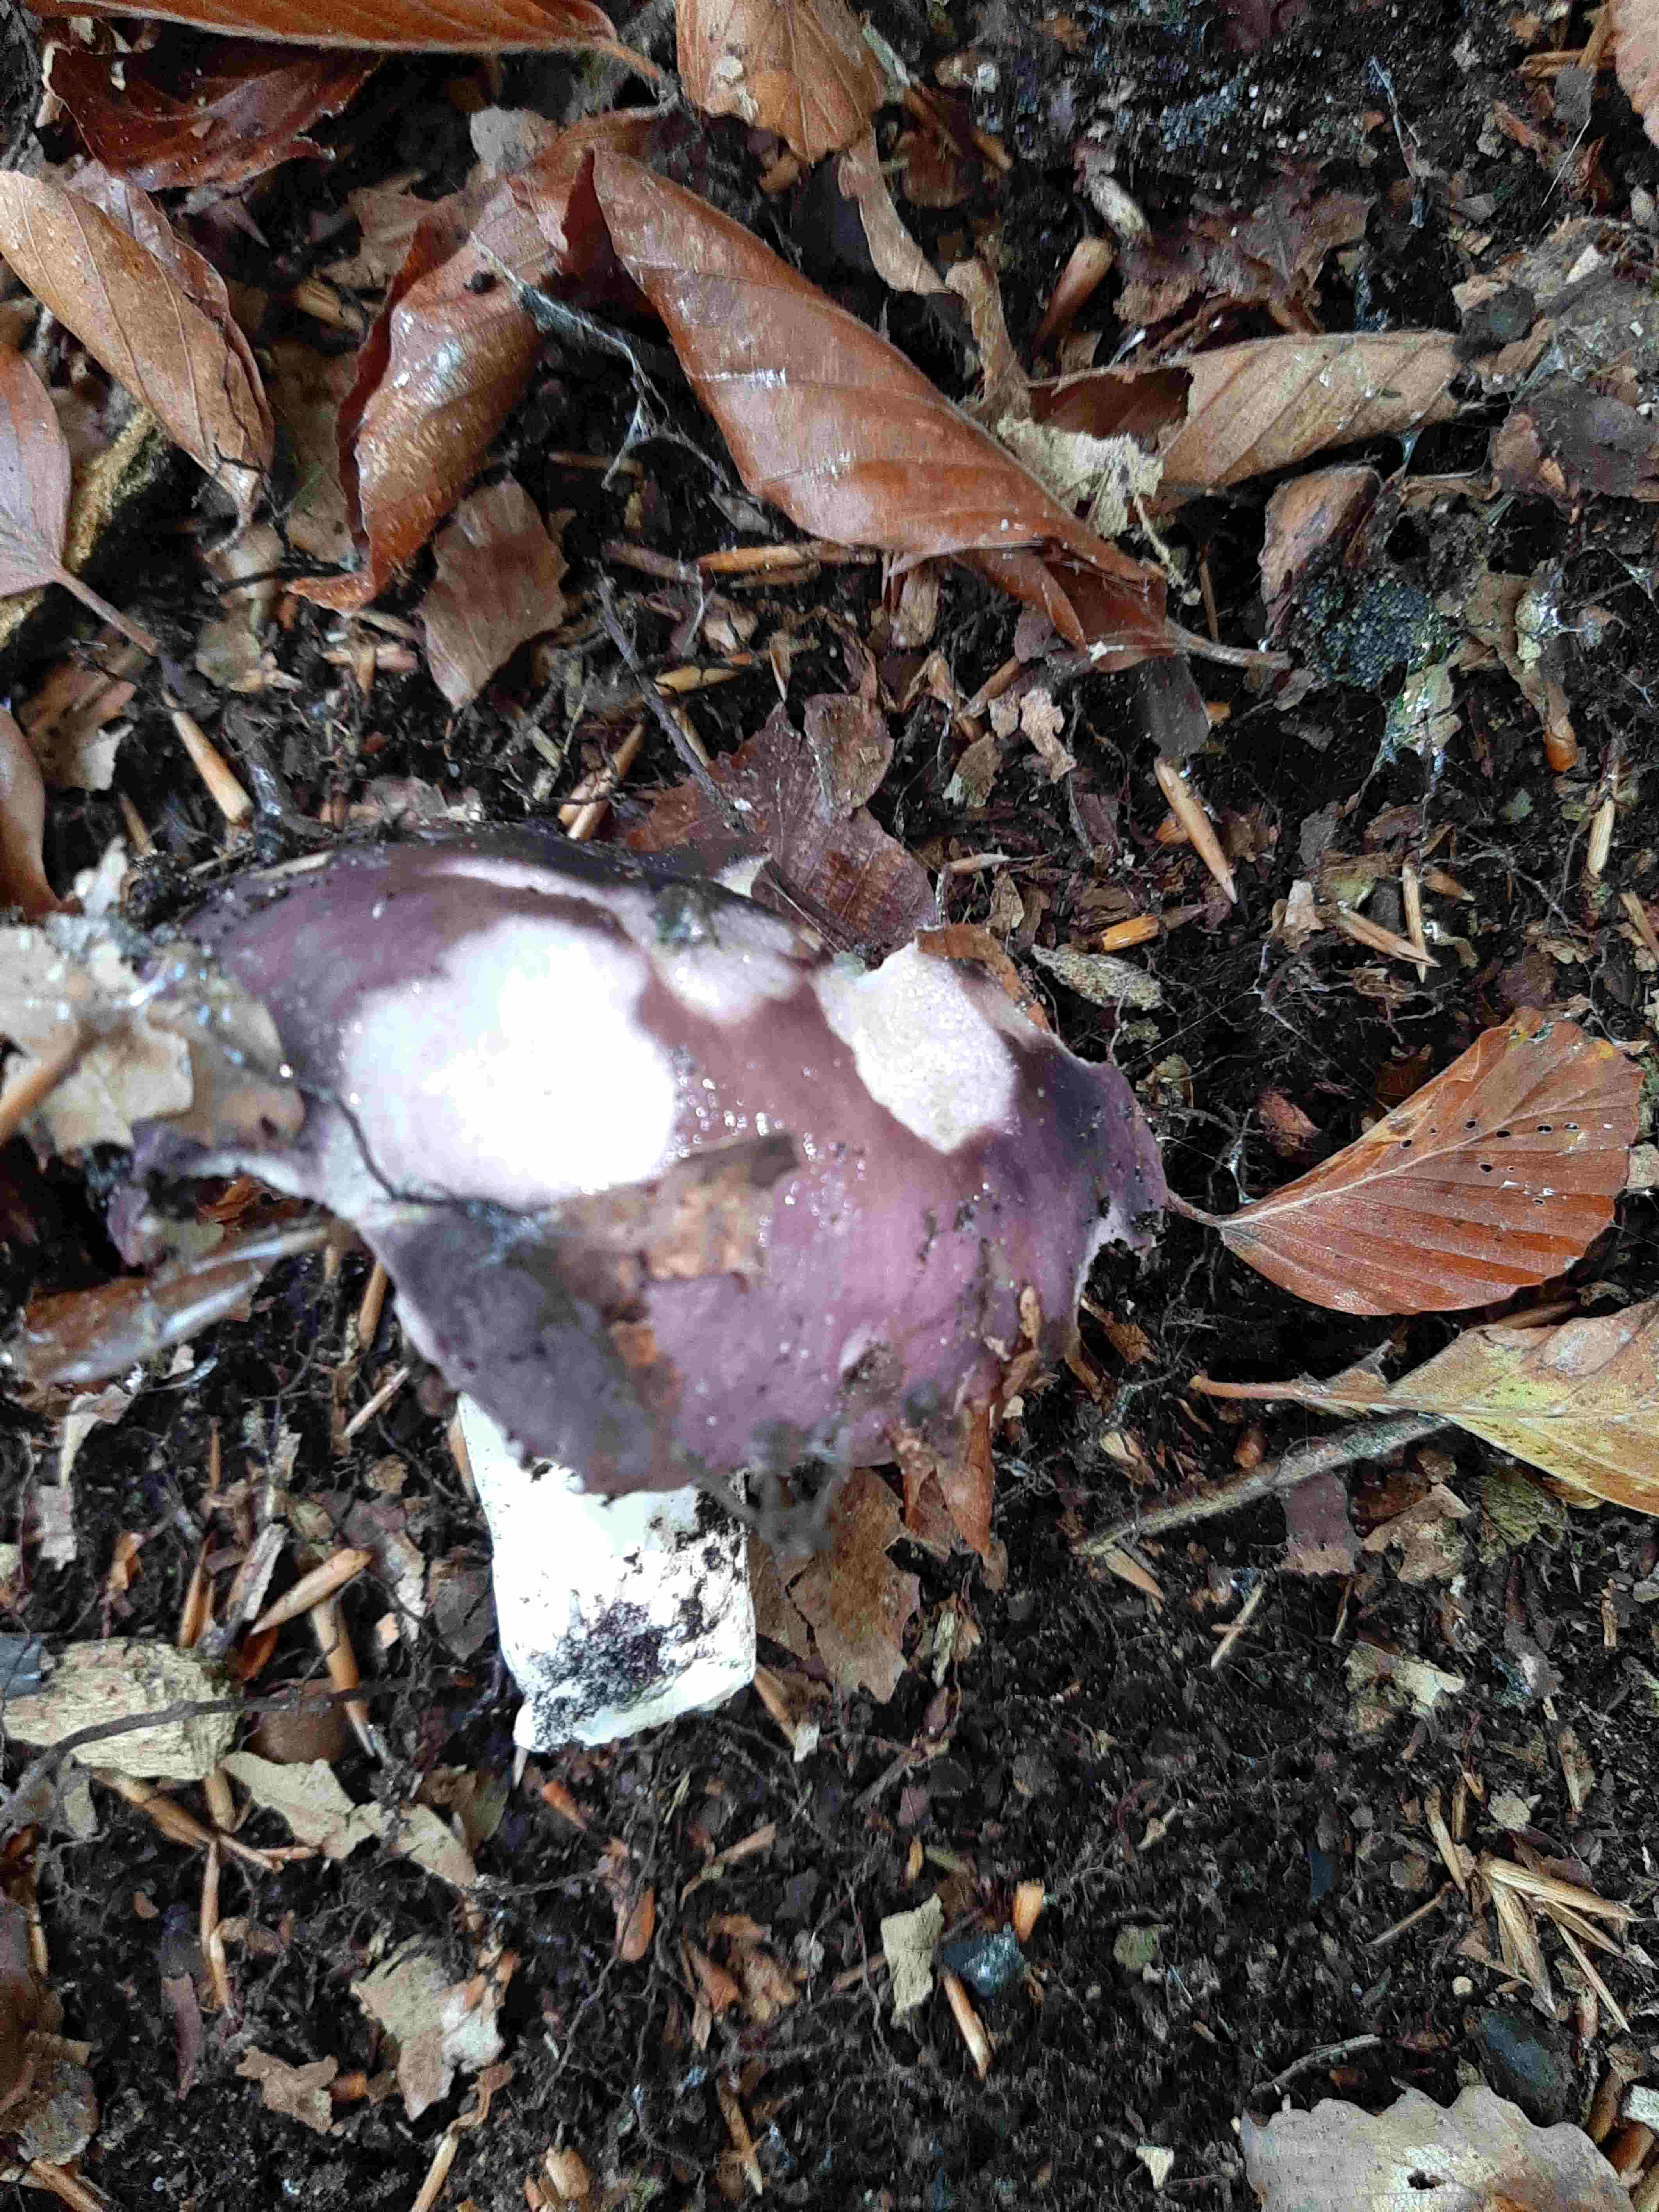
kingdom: Fungi
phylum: Basidiomycota
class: Agaricomycetes
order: Russulales
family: Russulaceae
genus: Russula
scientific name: Russula cyanoxantha
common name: broget skørhat
